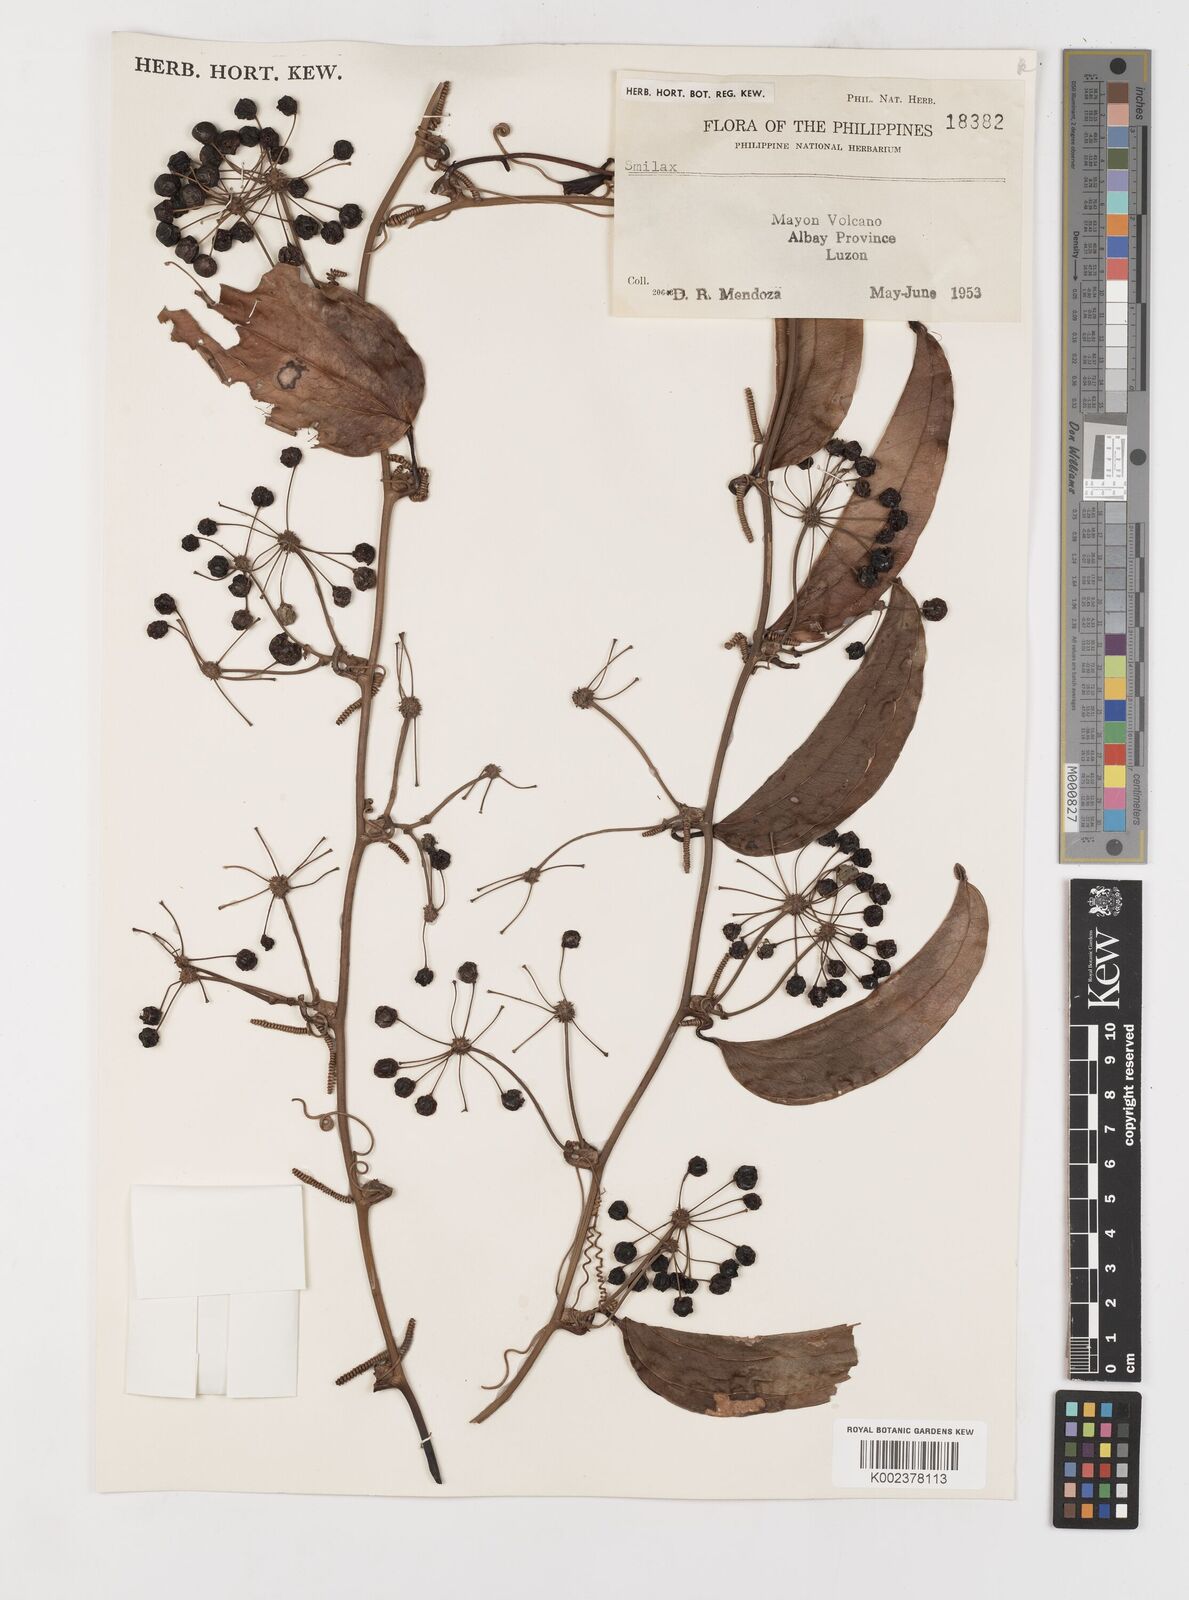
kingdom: Plantae
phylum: Tracheophyta
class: Liliopsida
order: Liliales
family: Smilacaceae
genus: Smilax
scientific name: Smilax
